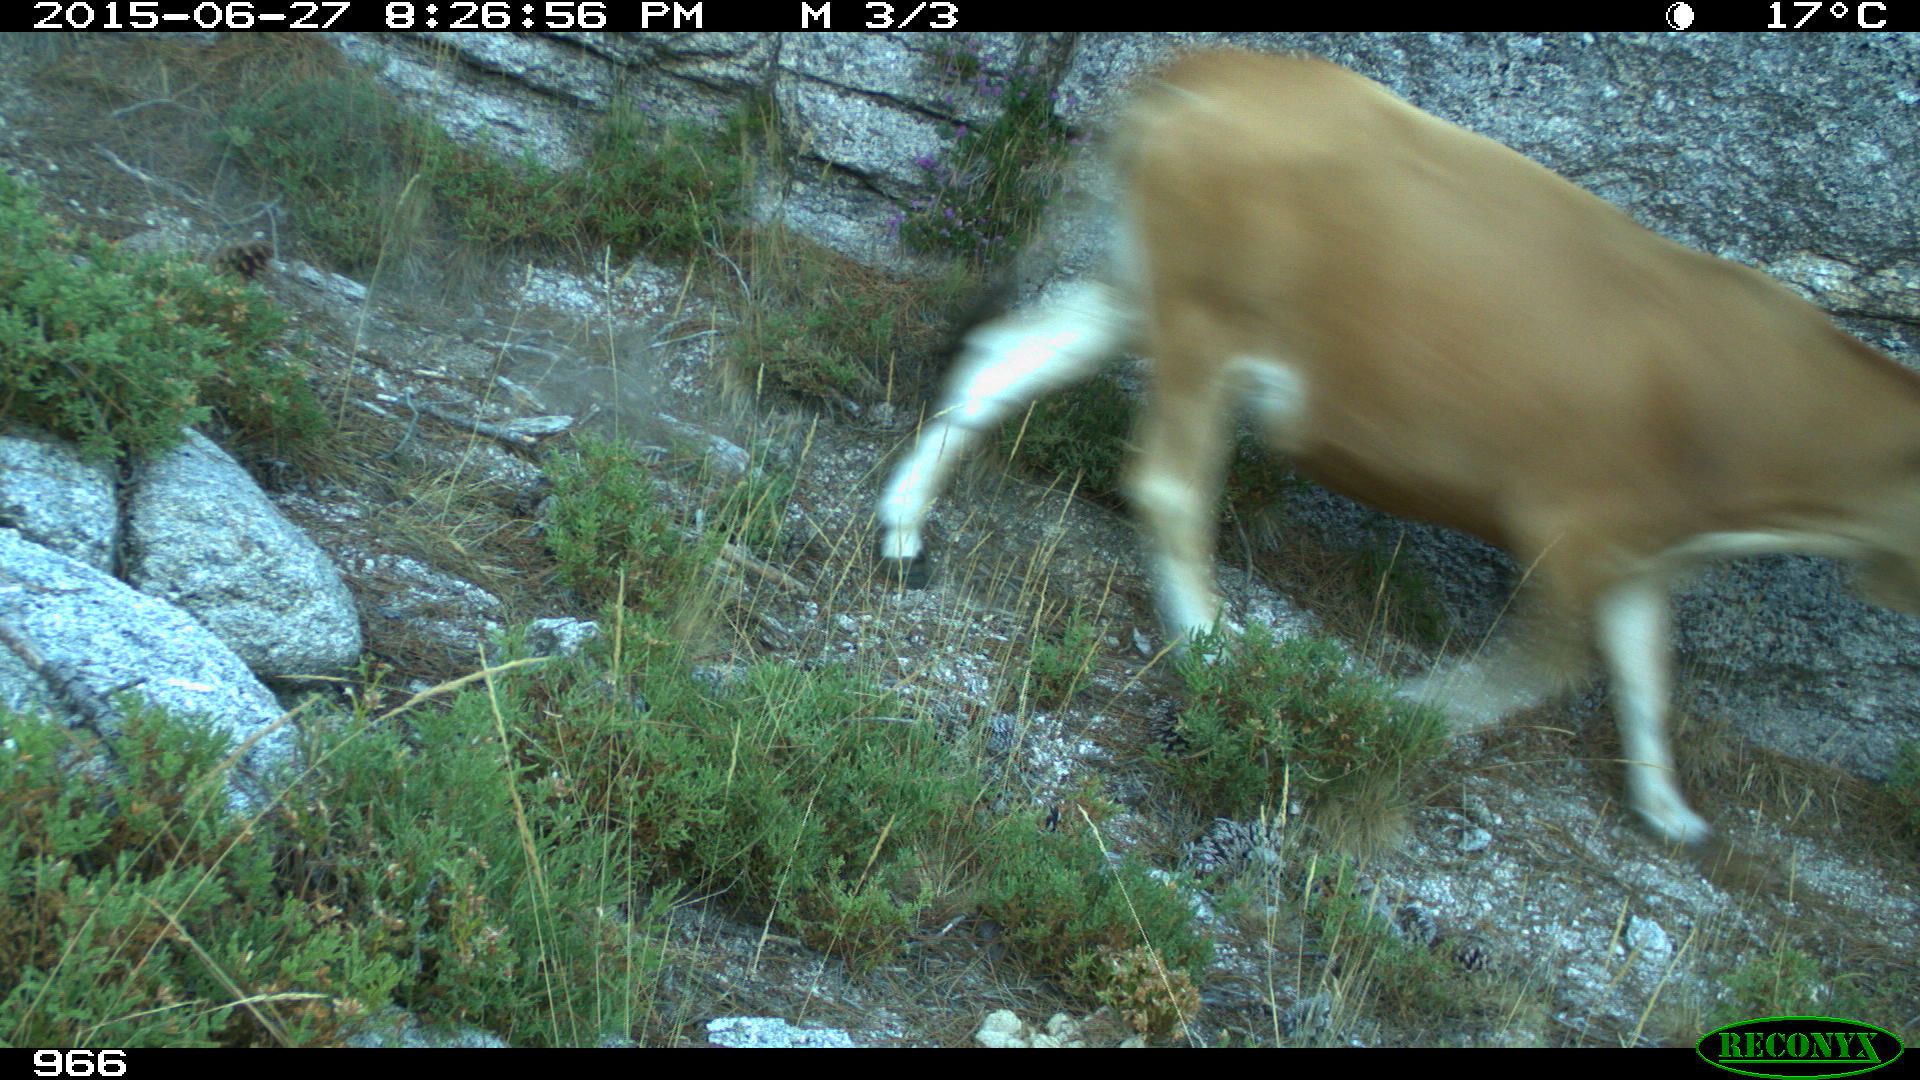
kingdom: Animalia
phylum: Chordata
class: Mammalia
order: Artiodactyla
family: Bovidae
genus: Bos
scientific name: Bos taurus
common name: Domesticated cattle
